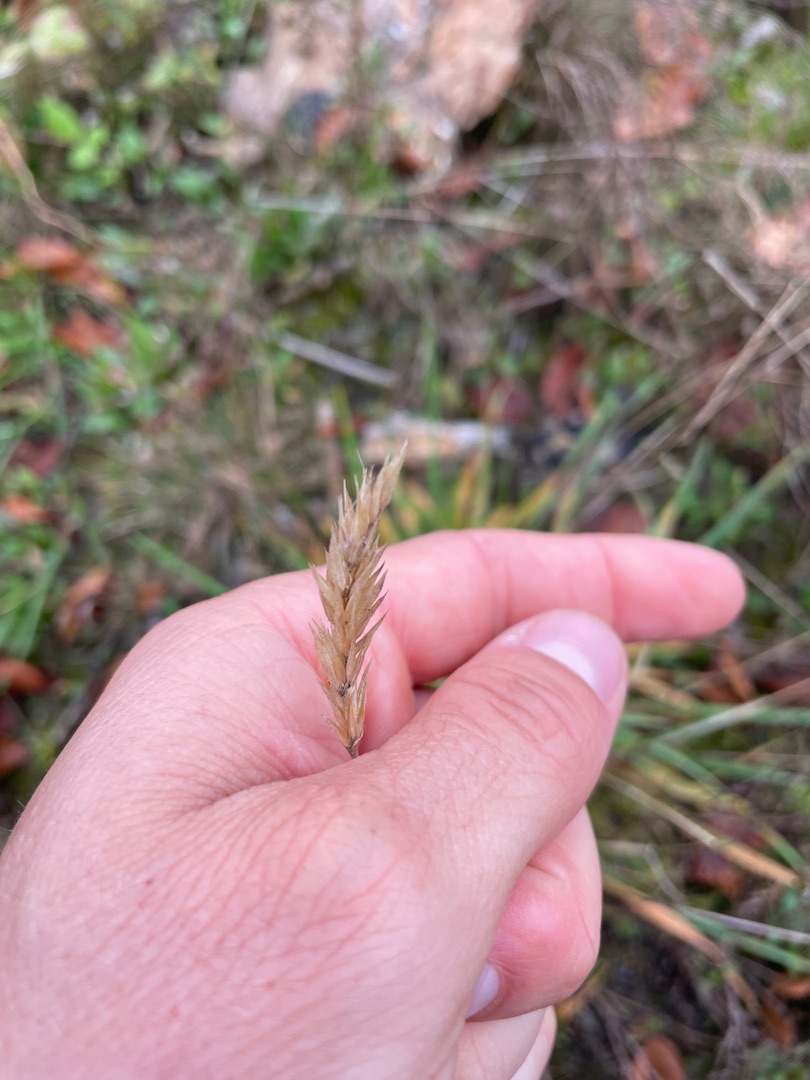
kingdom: Plantae
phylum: Tracheophyta
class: Liliopsida
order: Poales
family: Poaceae
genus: Anthoxanthum
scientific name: Anthoxanthum odoratum
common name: Vellugtende gulaks
